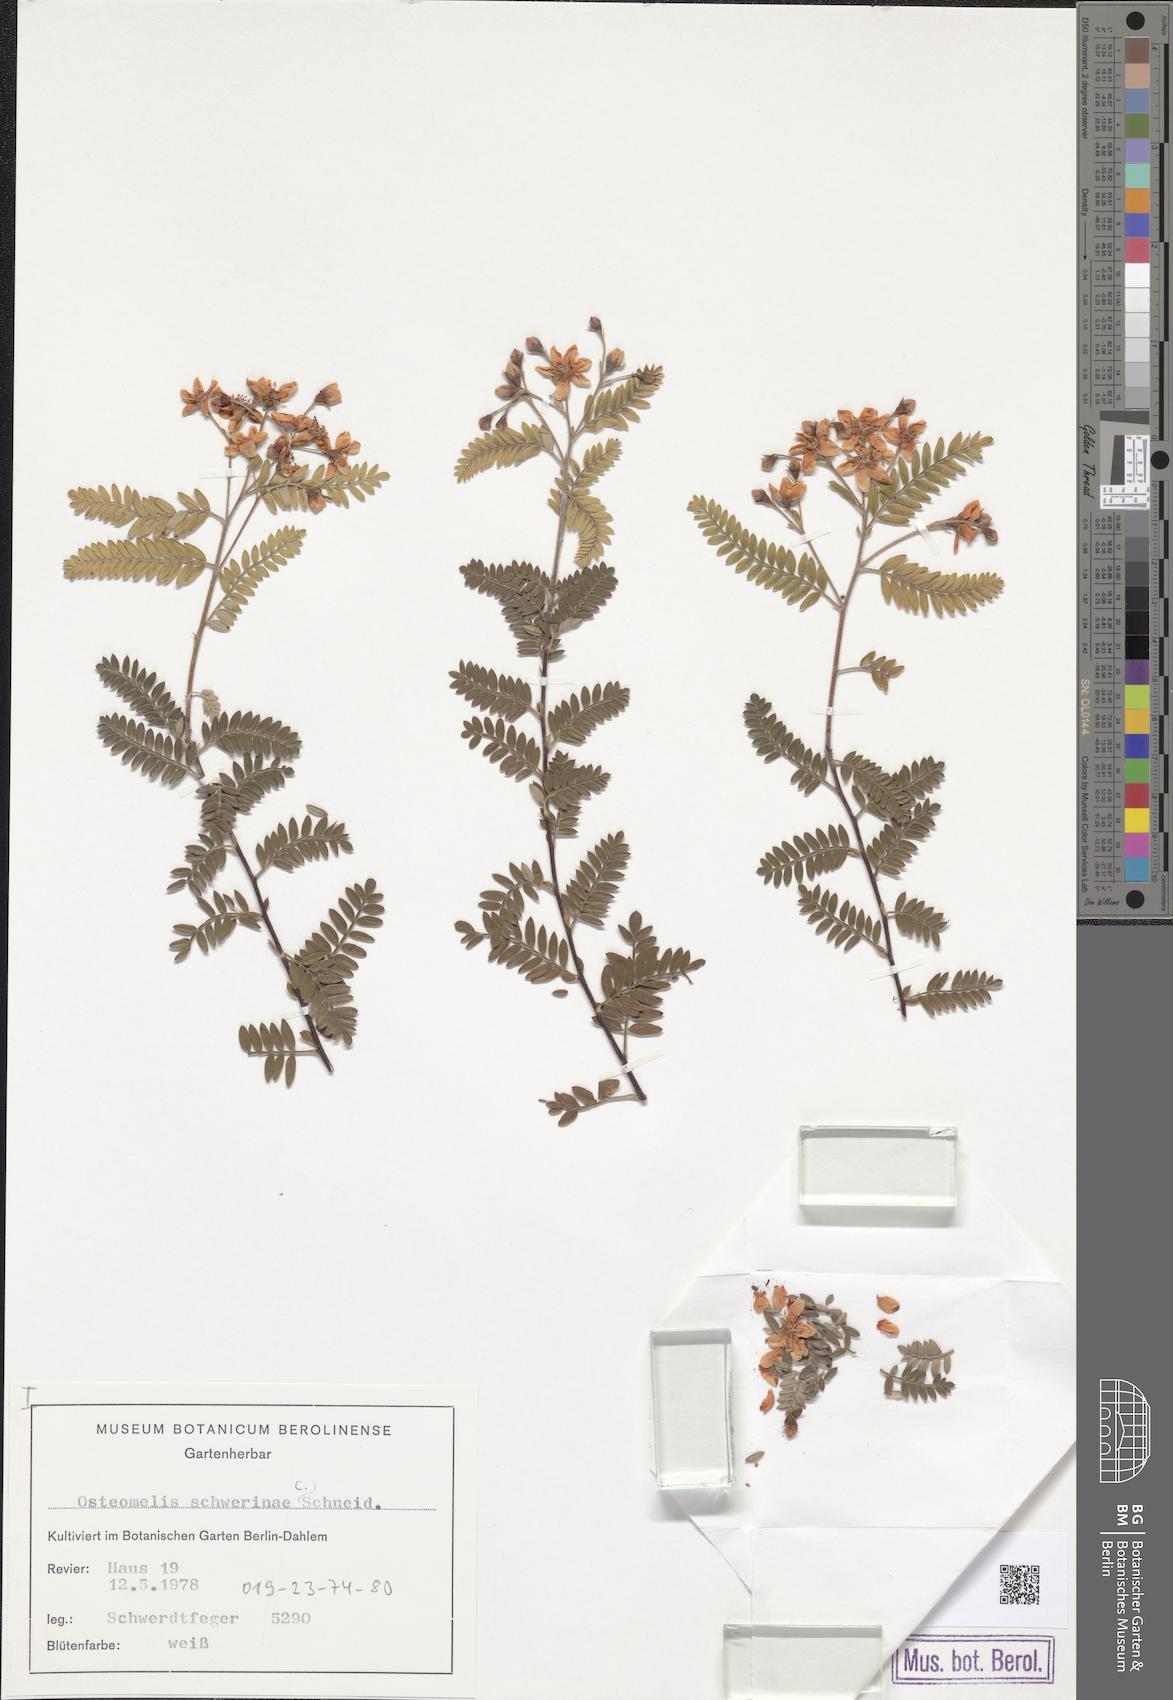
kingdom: Plantae
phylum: Tracheophyta
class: Magnoliopsida
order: Rosales
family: Rosaceae
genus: Osteomeles
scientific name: Osteomeles schwerinae
